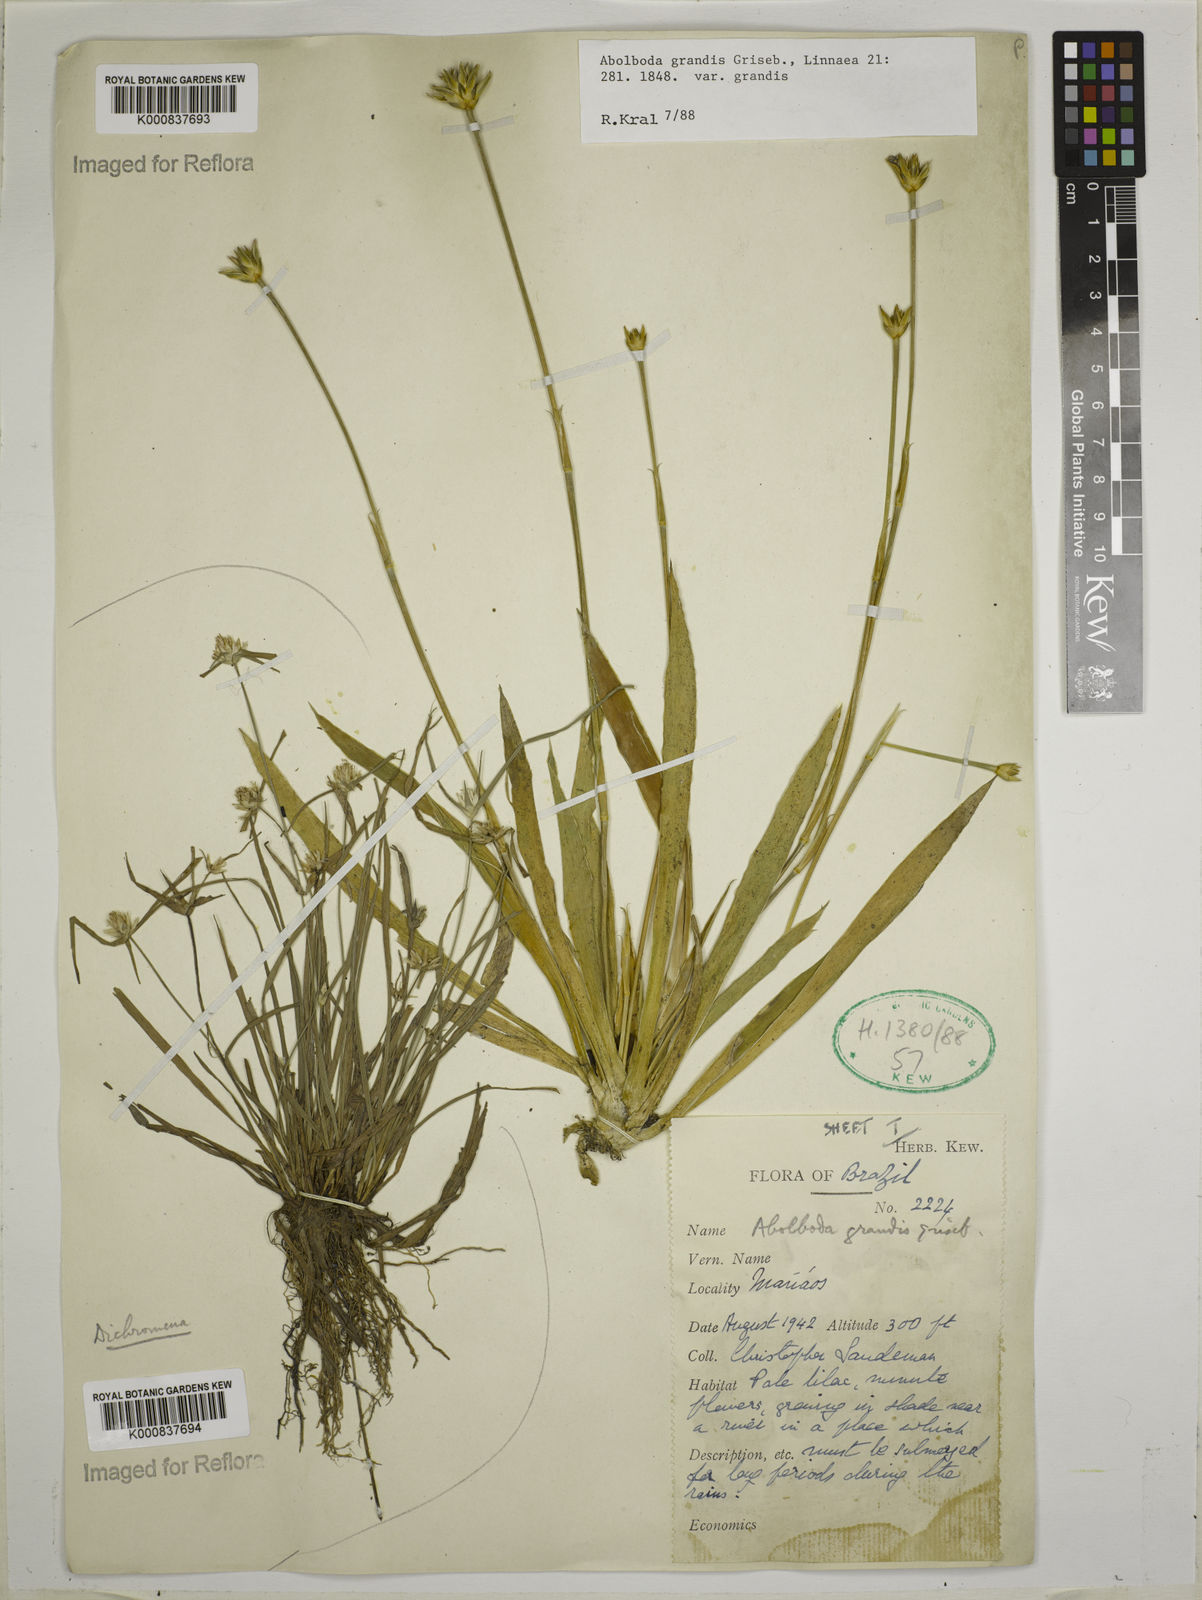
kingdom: Plantae
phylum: Tracheophyta
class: Liliopsida
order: Poales
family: Xyridaceae
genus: Abolboda
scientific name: Abolboda grandis
